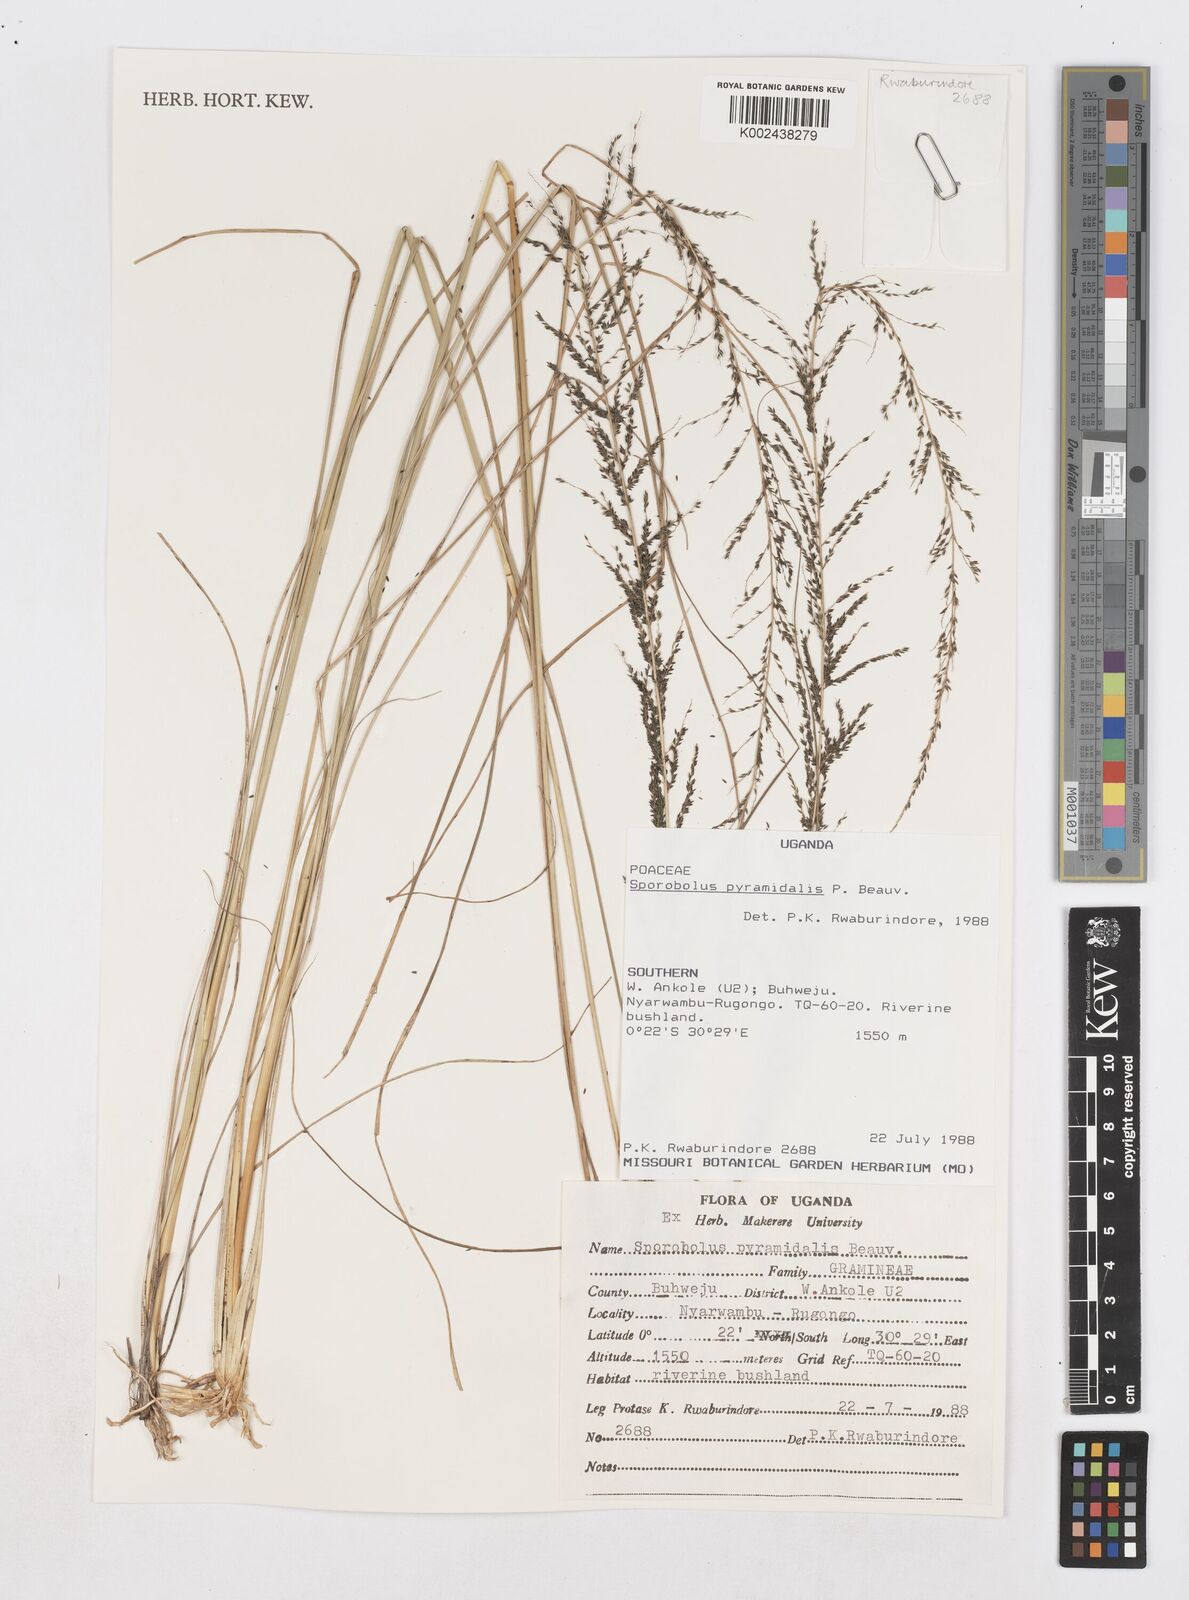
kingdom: Plantae
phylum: Tracheophyta
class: Liliopsida
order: Poales
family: Poaceae
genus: Sporobolus
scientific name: Sporobolus pyramidalis
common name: West indian dropseed
